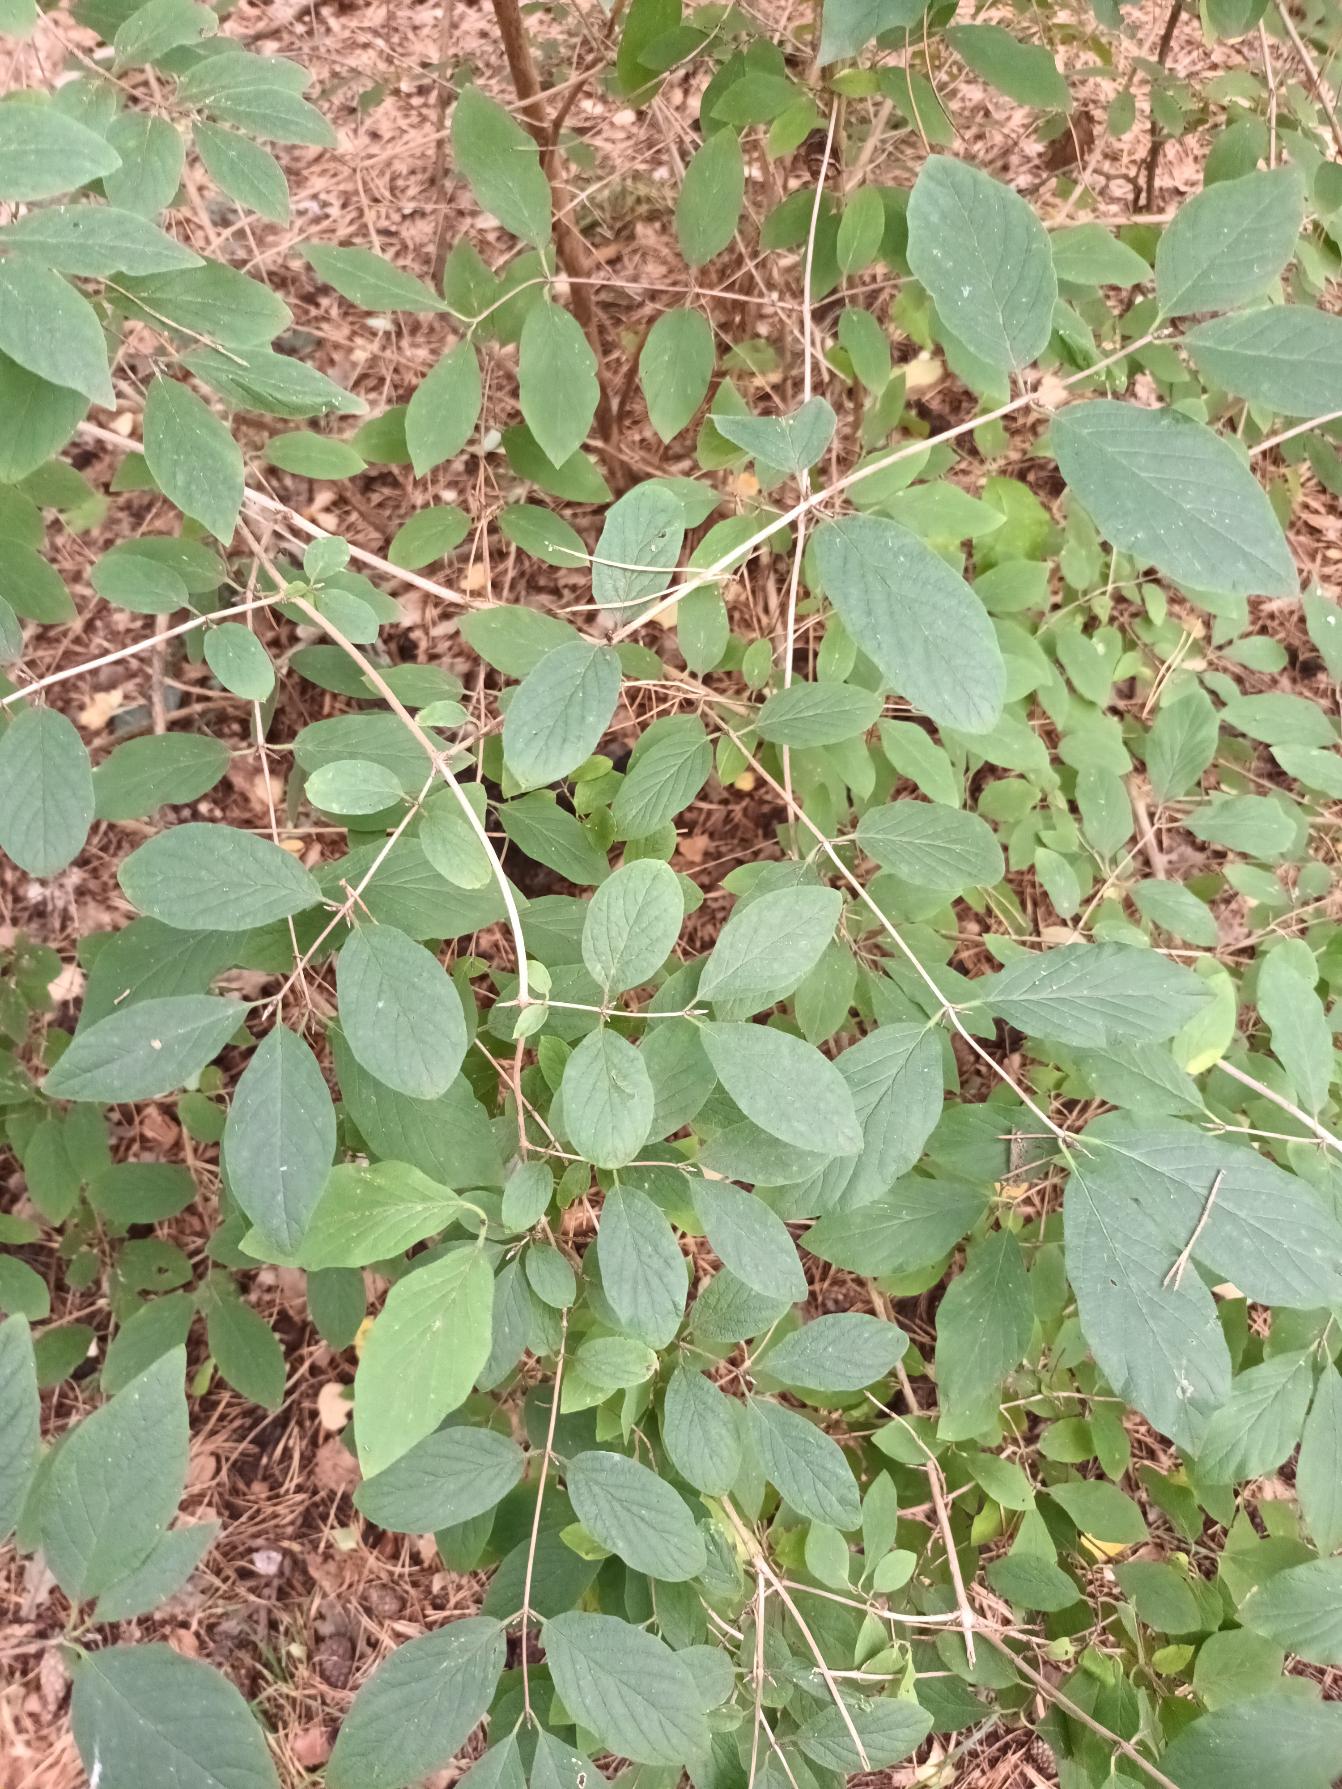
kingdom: Plantae
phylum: Tracheophyta
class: Magnoliopsida
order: Dipsacales
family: Caprifoliaceae
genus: Lonicera
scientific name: Lonicera xylosteum
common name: Dunet gedeblad
